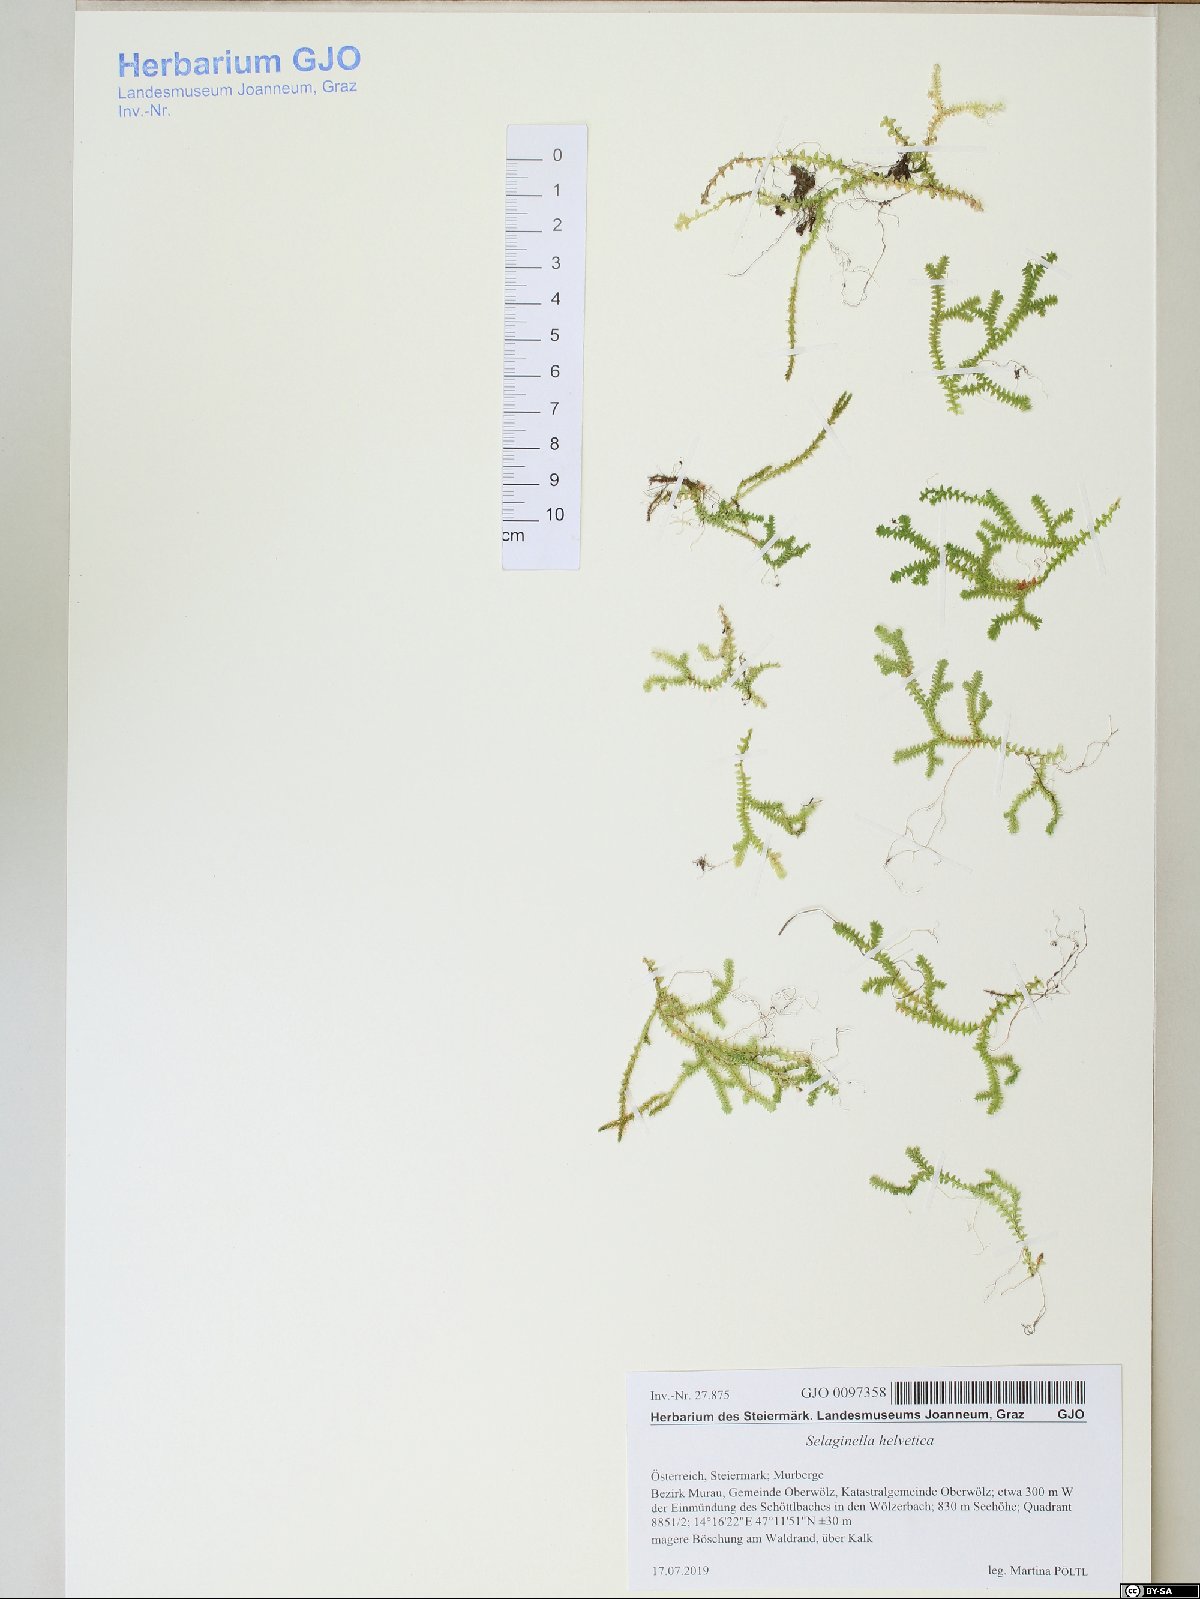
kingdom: Plantae
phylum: Tracheophyta
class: Lycopodiopsida
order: Selaginellales
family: Selaginellaceae
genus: Selaginella
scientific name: Selaginella helvetica
